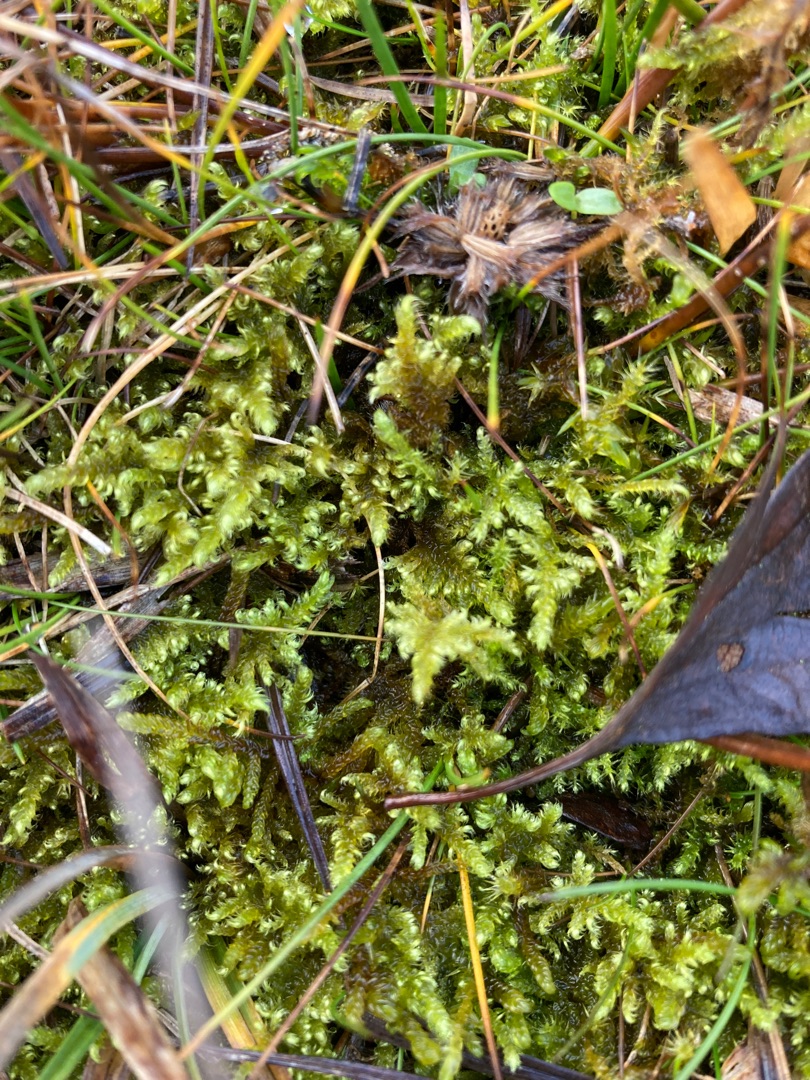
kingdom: Plantae
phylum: Bryophyta
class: Bryopsida
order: Hypnales
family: Myuriaceae
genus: Ctenidium
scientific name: Ctenidium molluscum
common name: Kalk-blødmos
